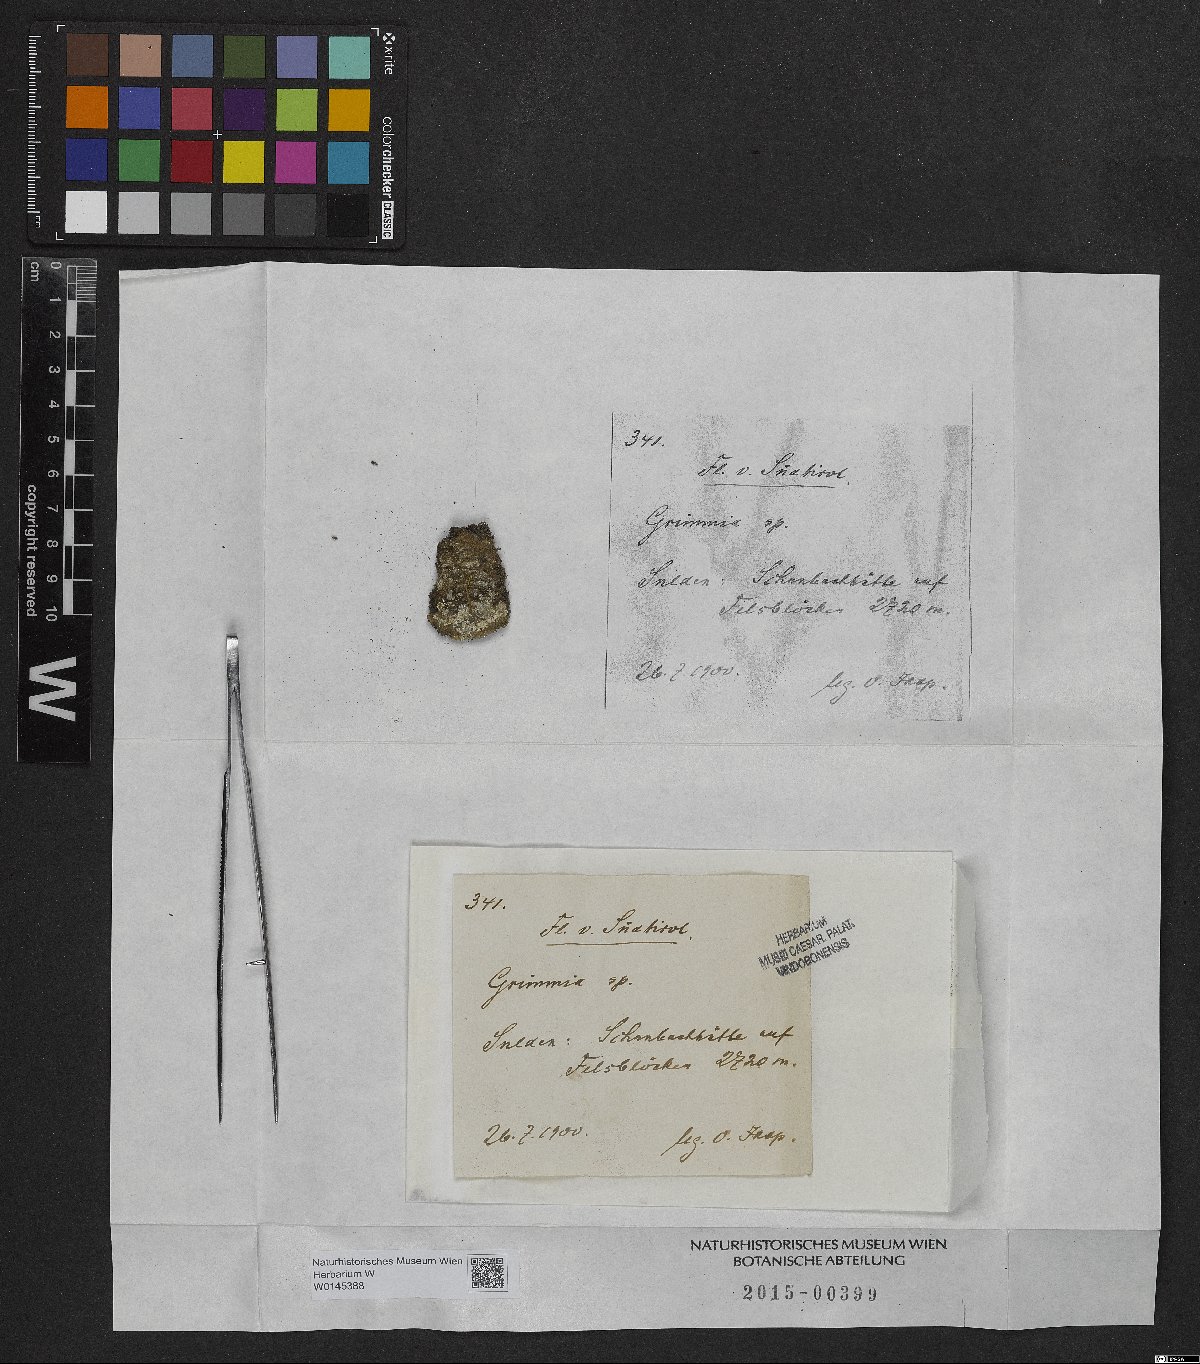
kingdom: Plantae
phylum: Bryophyta
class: Bryopsida
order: Grimmiales
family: Grimmiaceae
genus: Grimmia
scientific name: Grimmia
